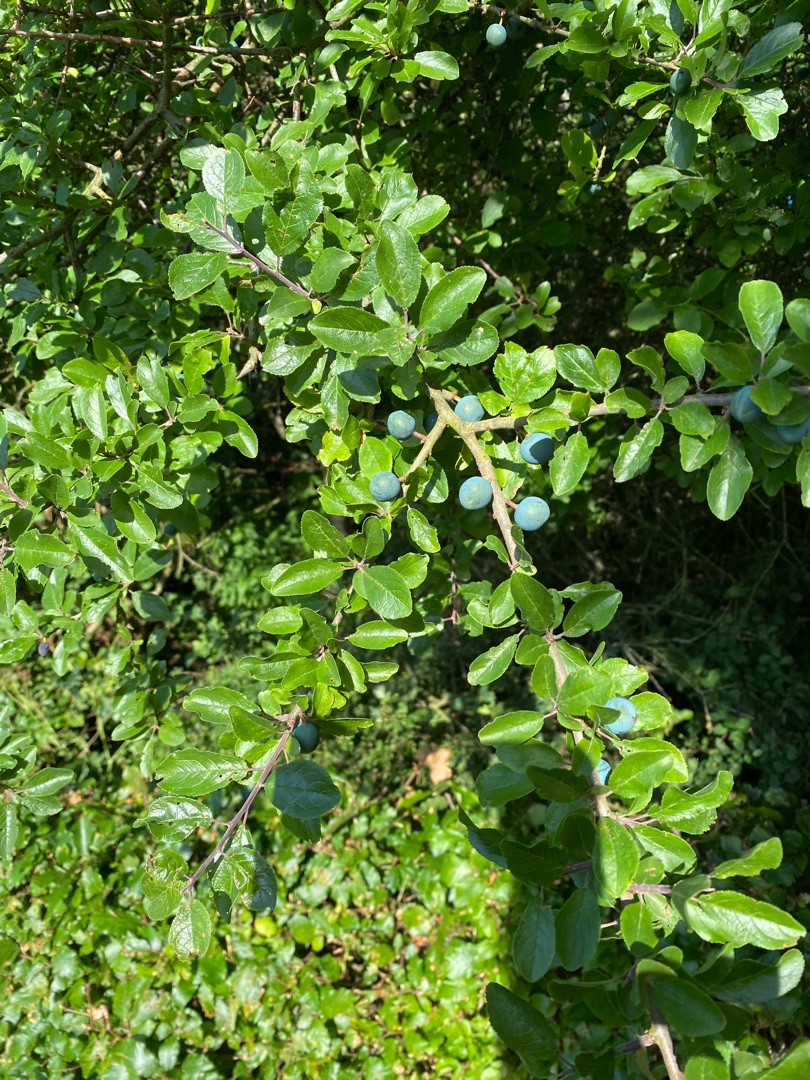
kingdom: Plantae
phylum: Tracheophyta
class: Magnoliopsida
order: Rosales
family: Rosaceae
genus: Prunus
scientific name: Prunus spinosa
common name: Slåen
